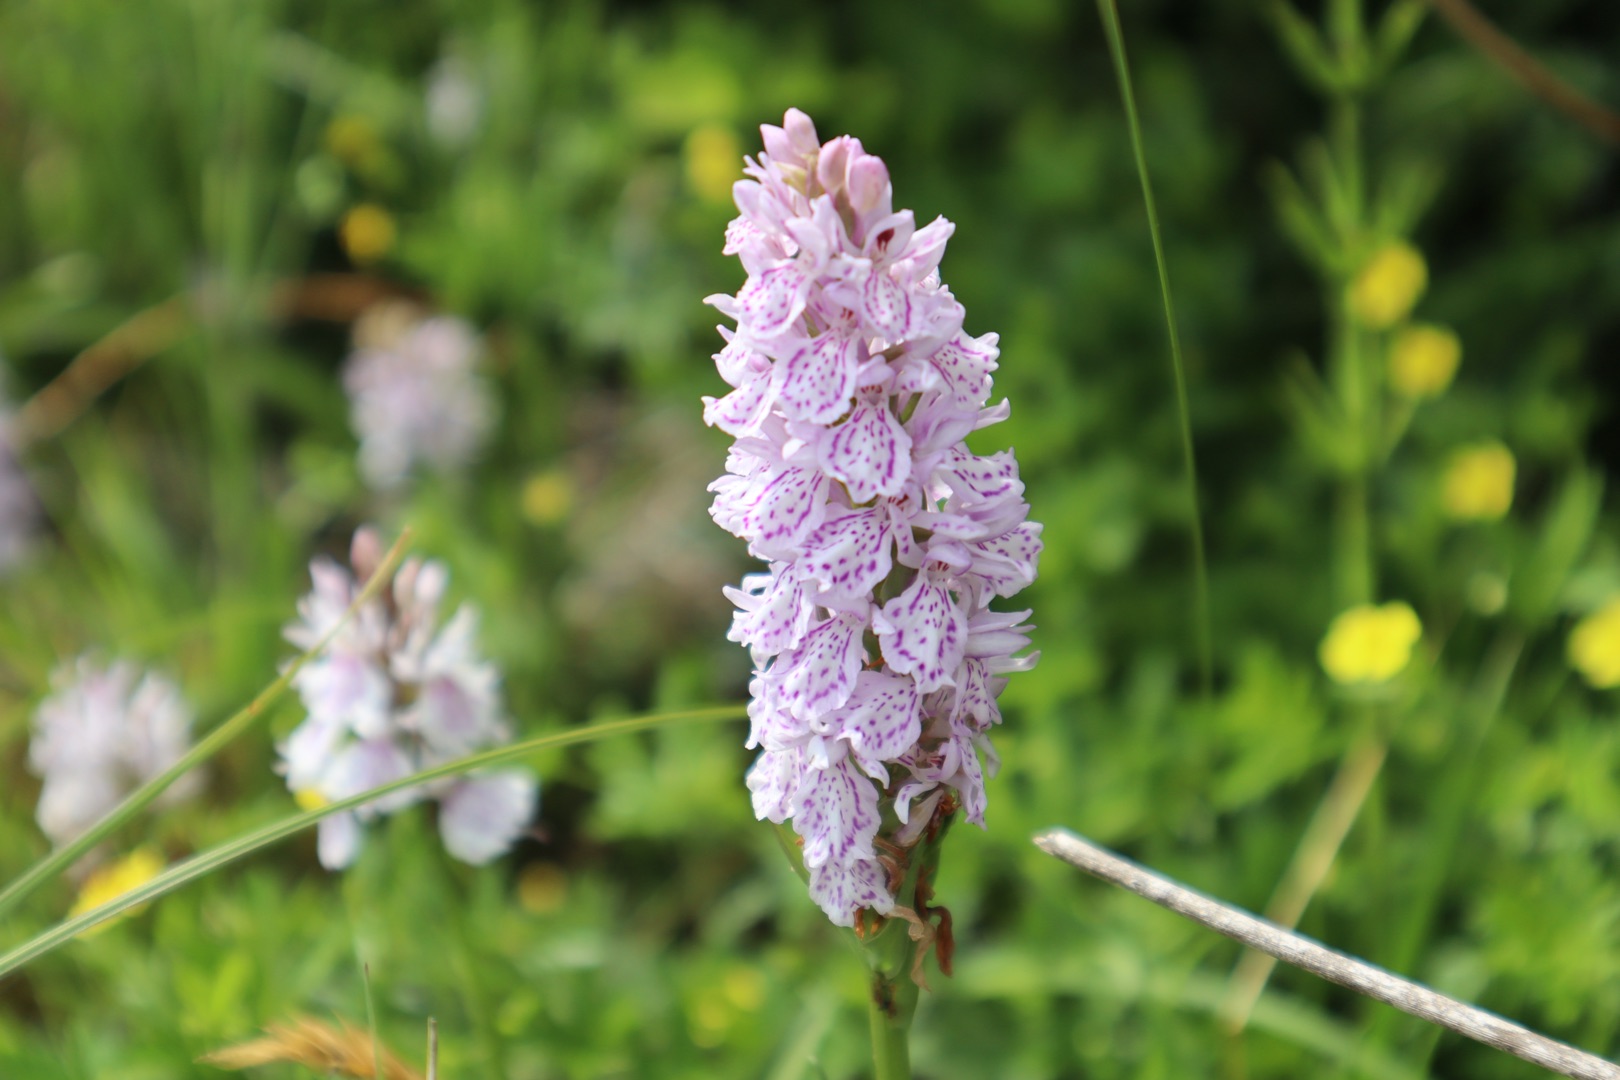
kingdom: Plantae
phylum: Tracheophyta
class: Liliopsida
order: Asparagales
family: Orchidaceae
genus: Dactylorhiza
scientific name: Dactylorhiza maculata
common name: Plettet gøgeurt (underart)
